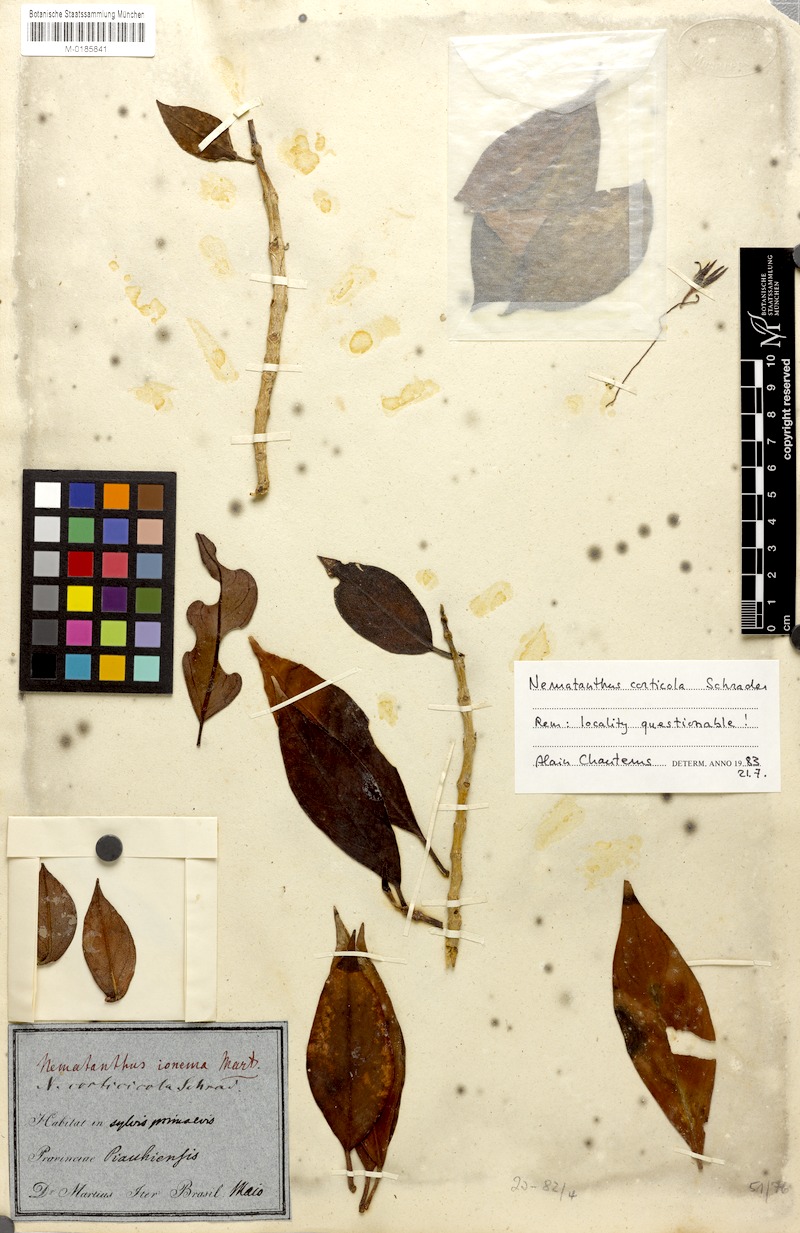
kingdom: Plantae
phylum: Tracheophyta
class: Magnoliopsida
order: Lamiales
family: Gesneriaceae
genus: Nematanthus
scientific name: Nematanthus corticola
